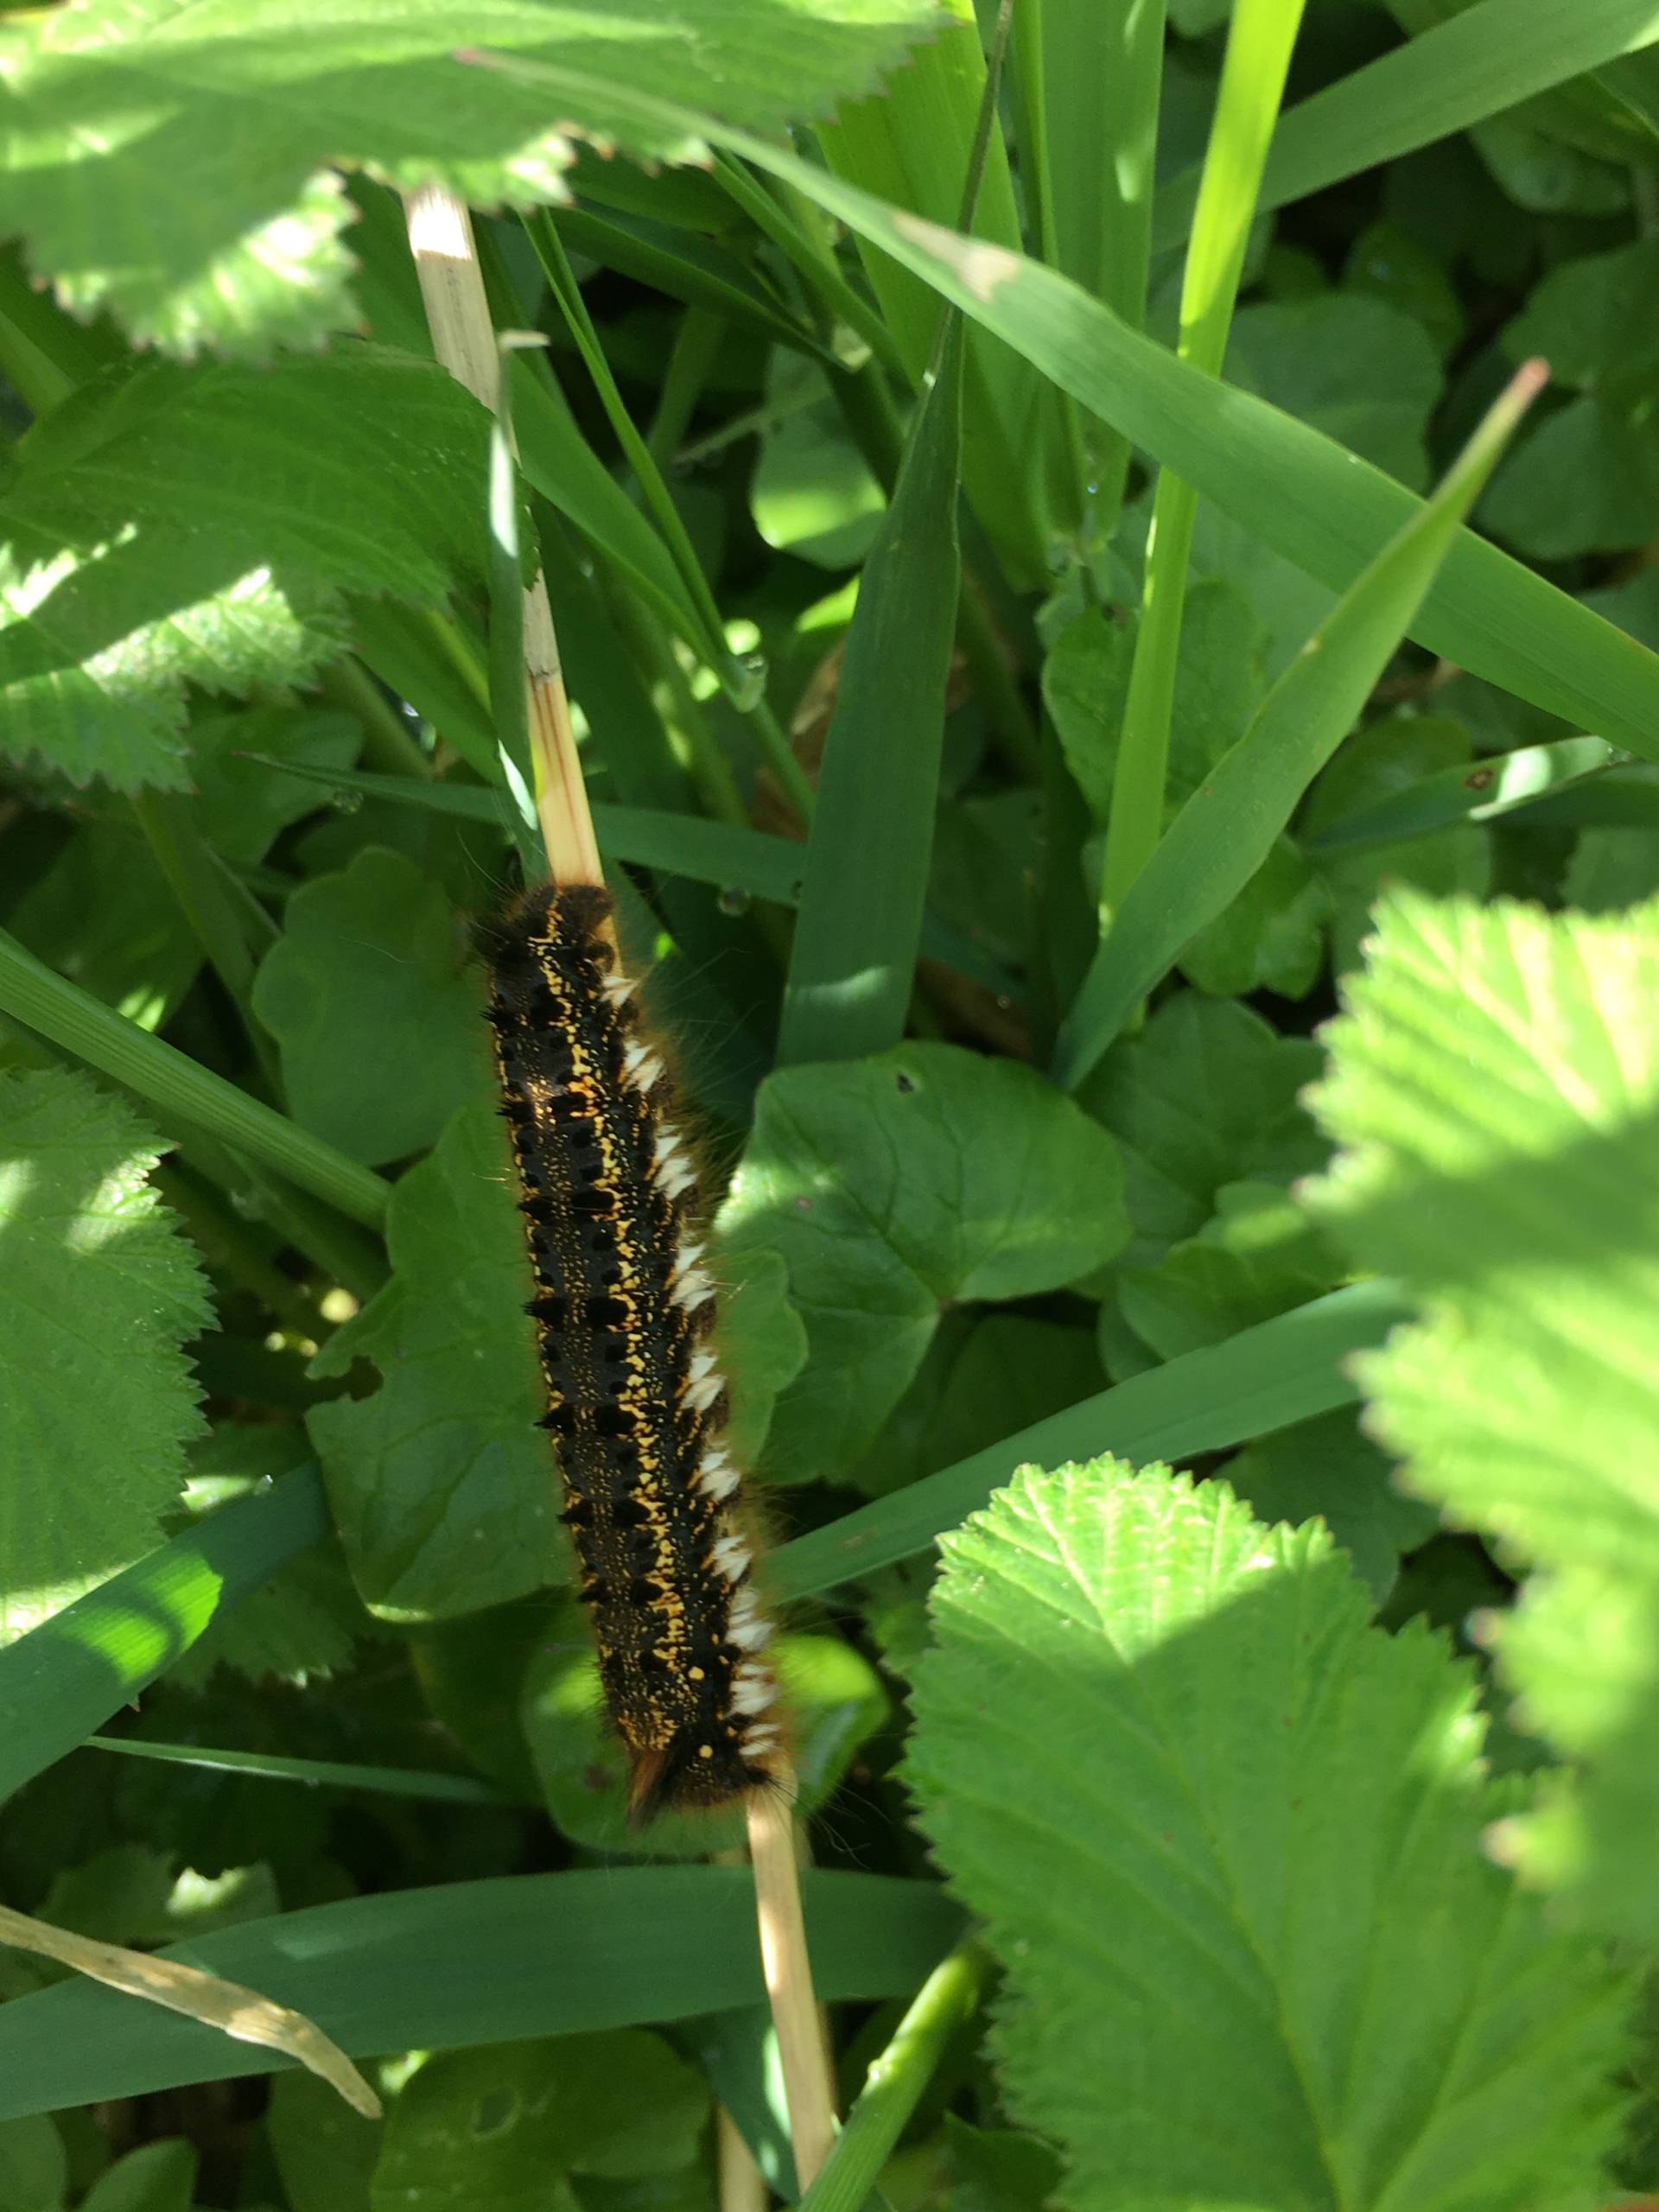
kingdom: Animalia
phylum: Arthropoda
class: Insecta
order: Lepidoptera
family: Lasiocampidae
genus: Euthrix
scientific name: Euthrix potatoria
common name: Græsspinder
